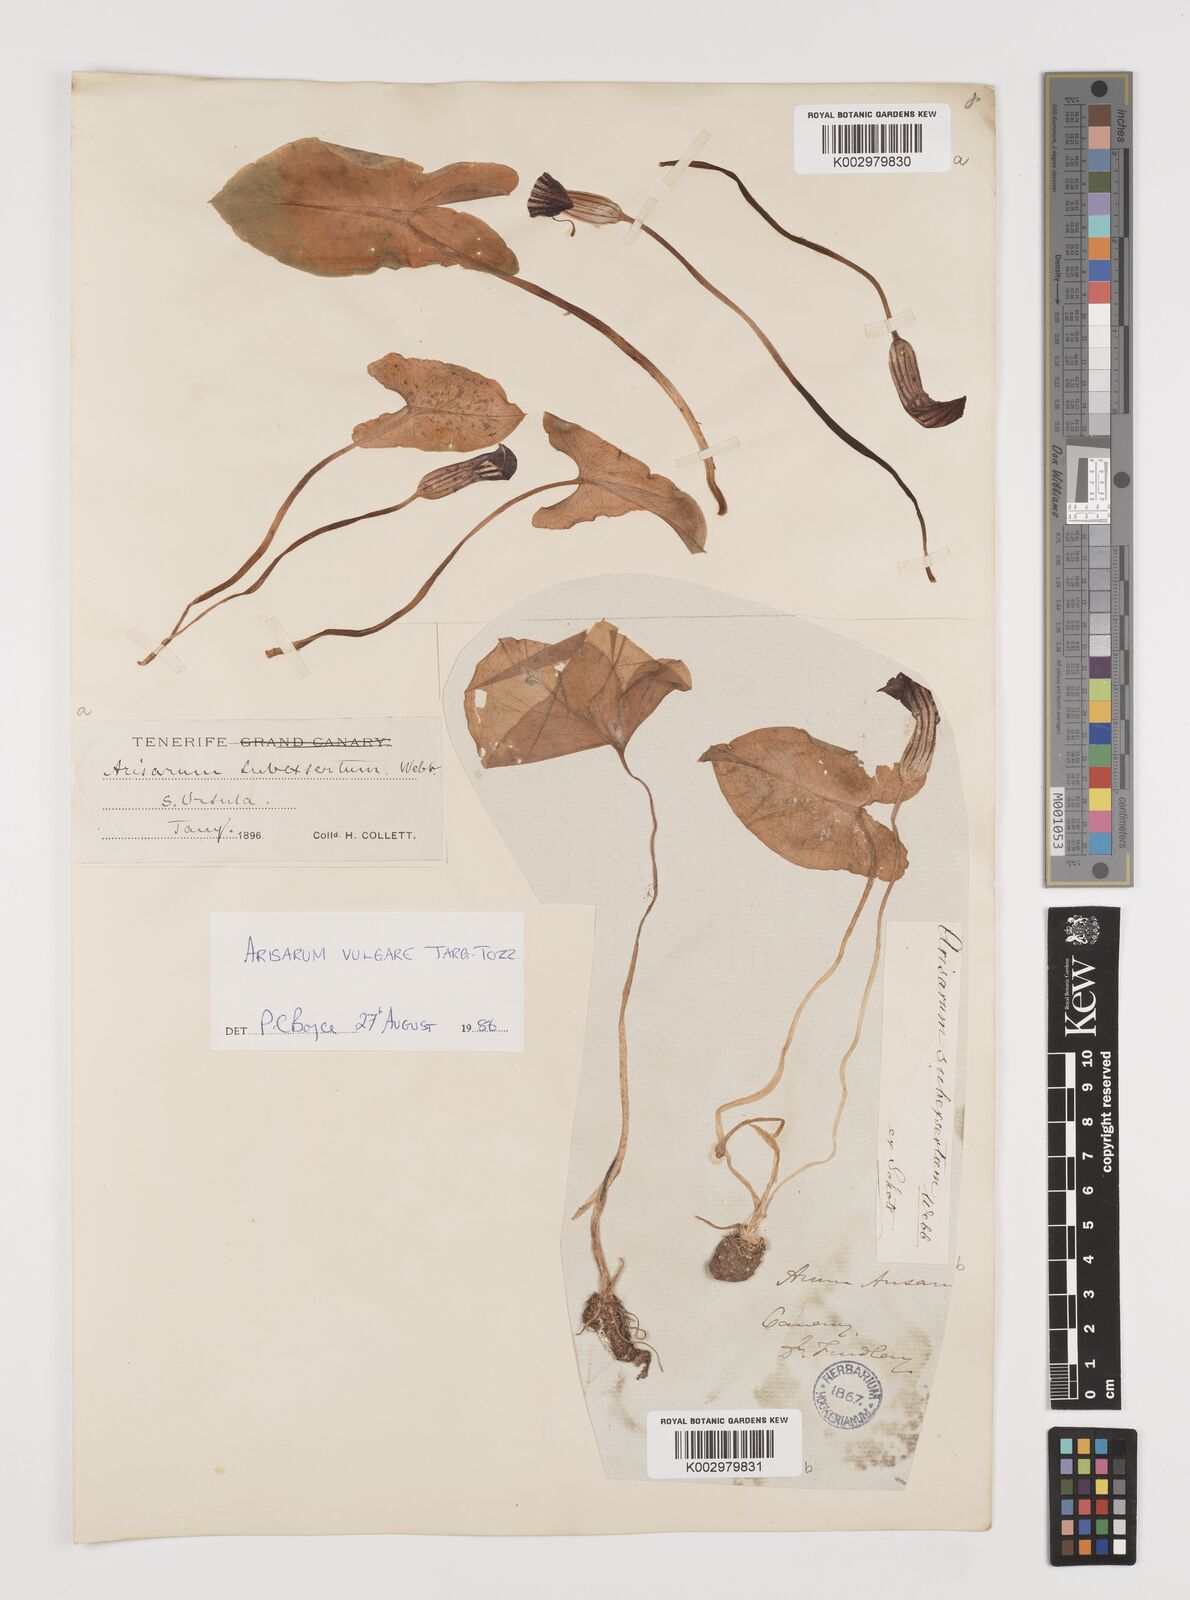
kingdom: Plantae
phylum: Tracheophyta
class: Liliopsida
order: Alismatales
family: Araceae
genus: Arisarum
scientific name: Arisarum vulgare
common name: Common arisarum
